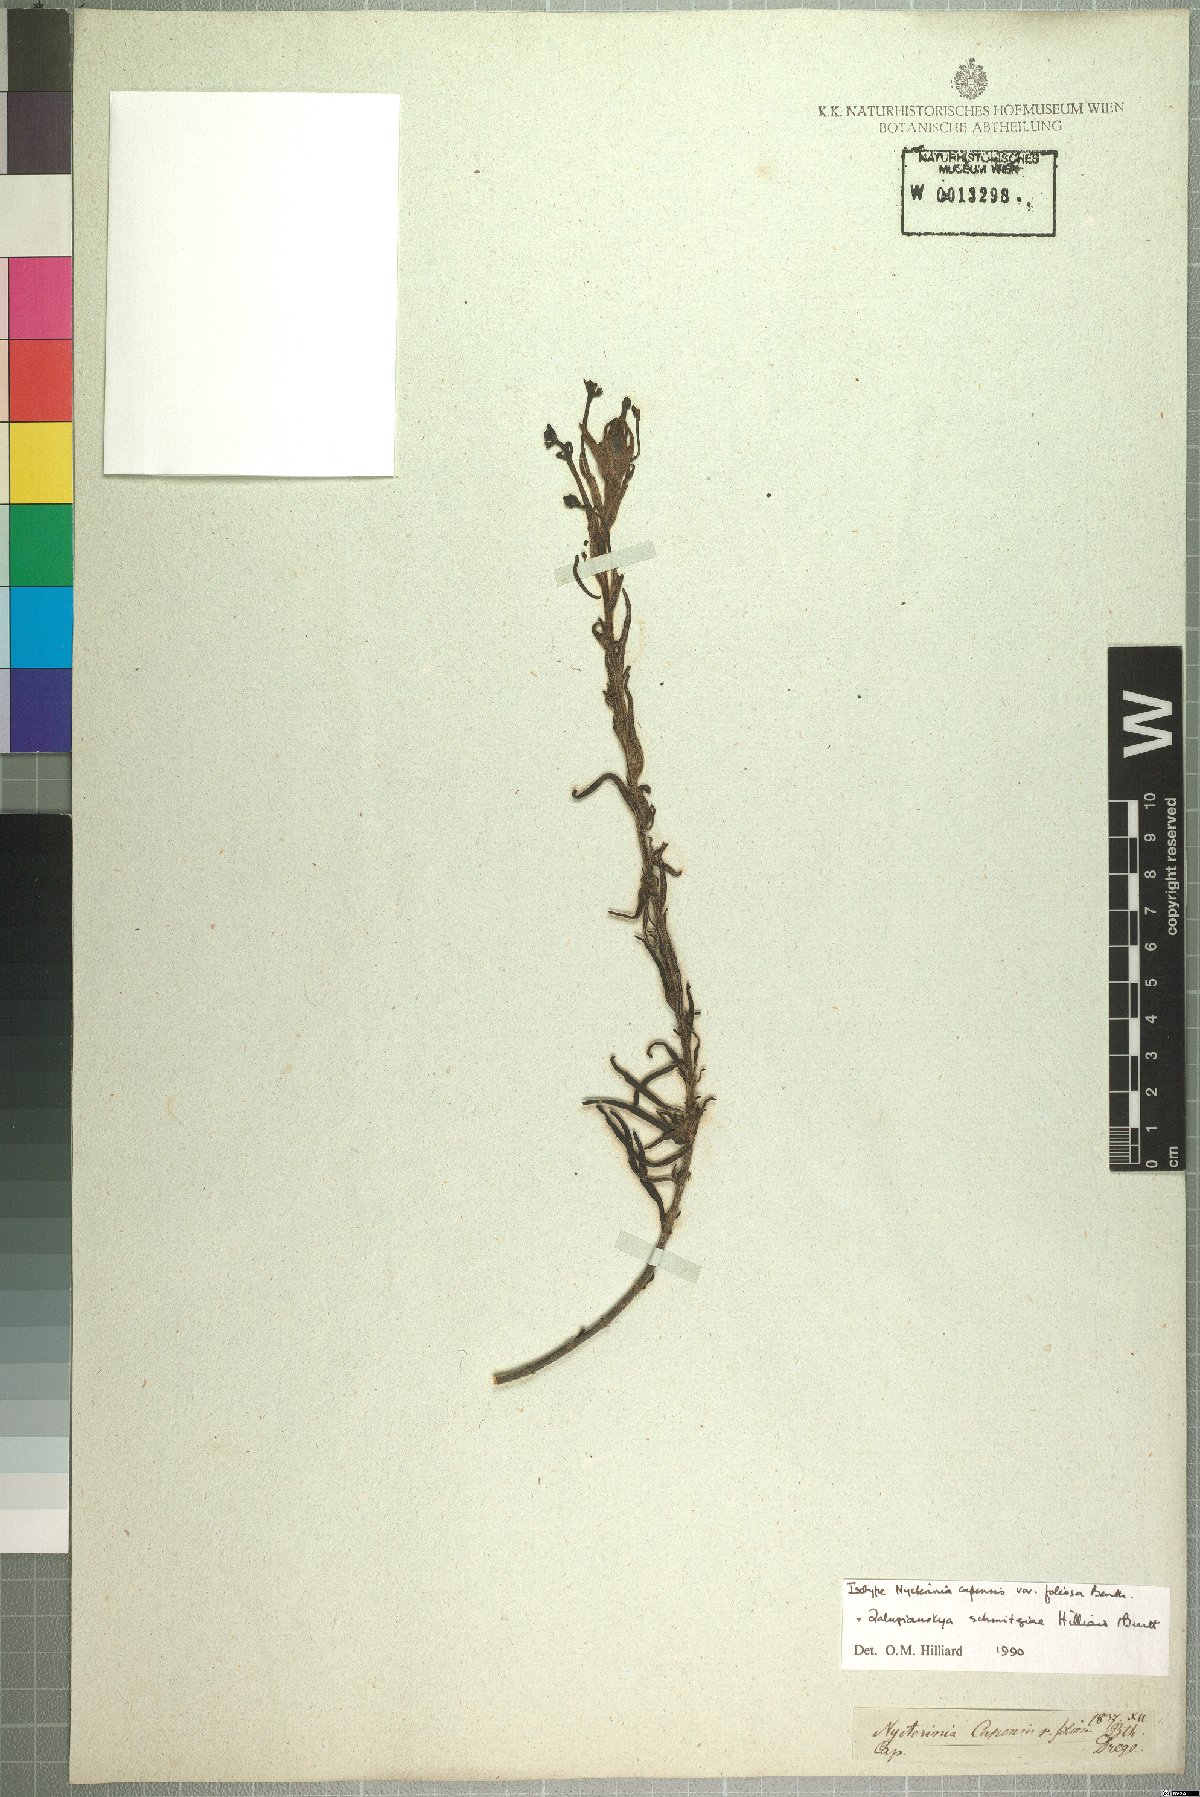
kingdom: Plantae
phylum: Tracheophyta
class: Magnoliopsida
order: Lamiales
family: Scrophulariaceae
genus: Zaluzianskya
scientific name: Zaluzianskya schmitziae
